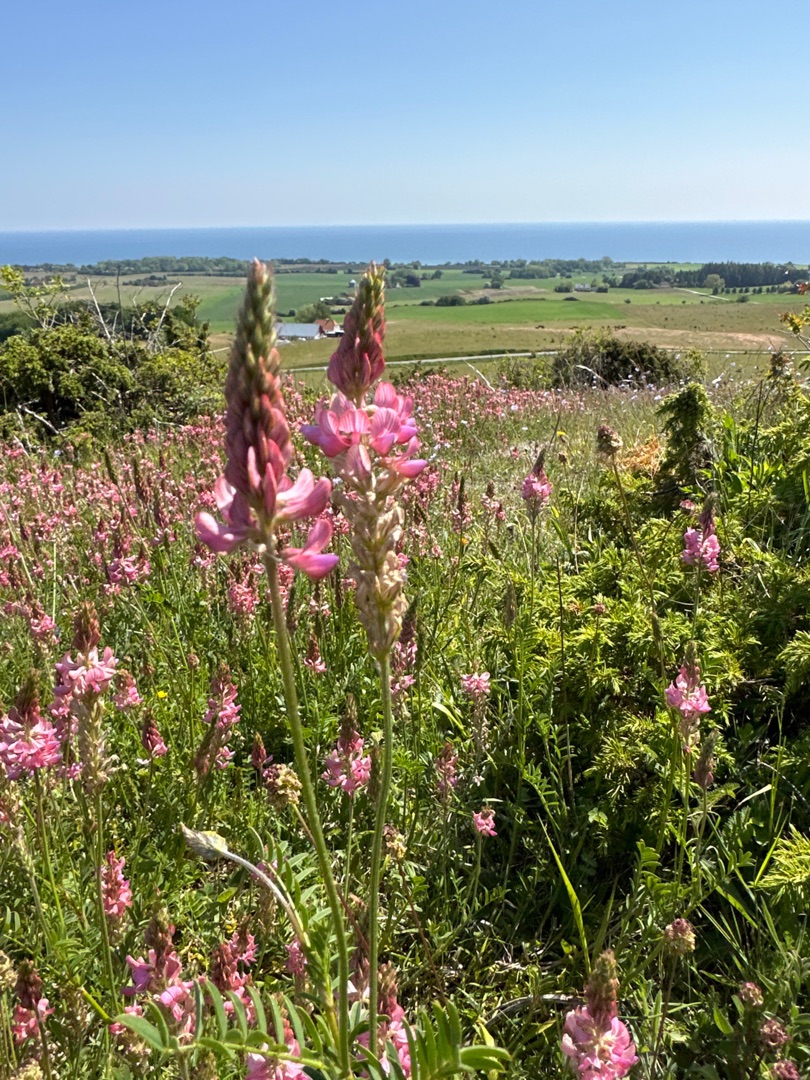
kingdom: Plantae
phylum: Tracheophyta
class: Magnoliopsida
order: Fabales
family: Fabaceae
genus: Onobrychis
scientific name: Onobrychis viciifolia
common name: Esparsette
